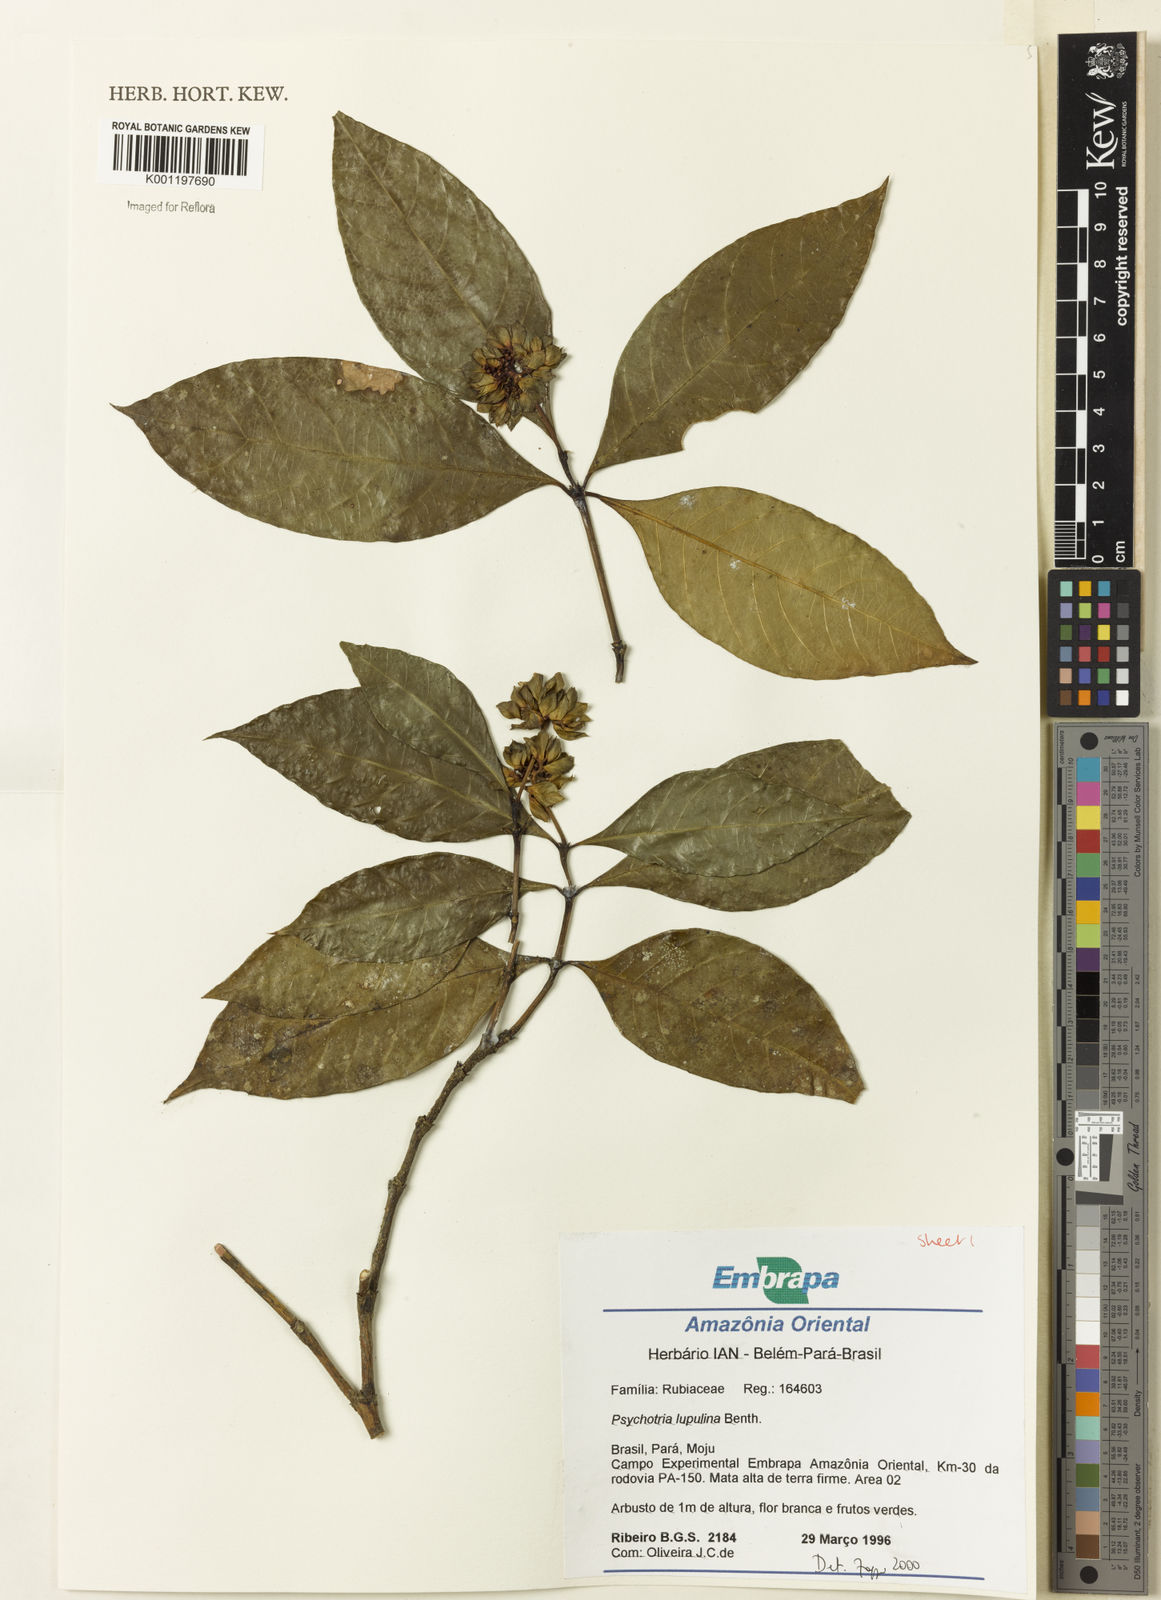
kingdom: Plantae
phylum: Tracheophyta
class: Magnoliopsida
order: Gentianales
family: Rubiaceae
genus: Palicourea
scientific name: Palicourea justiciifolia
